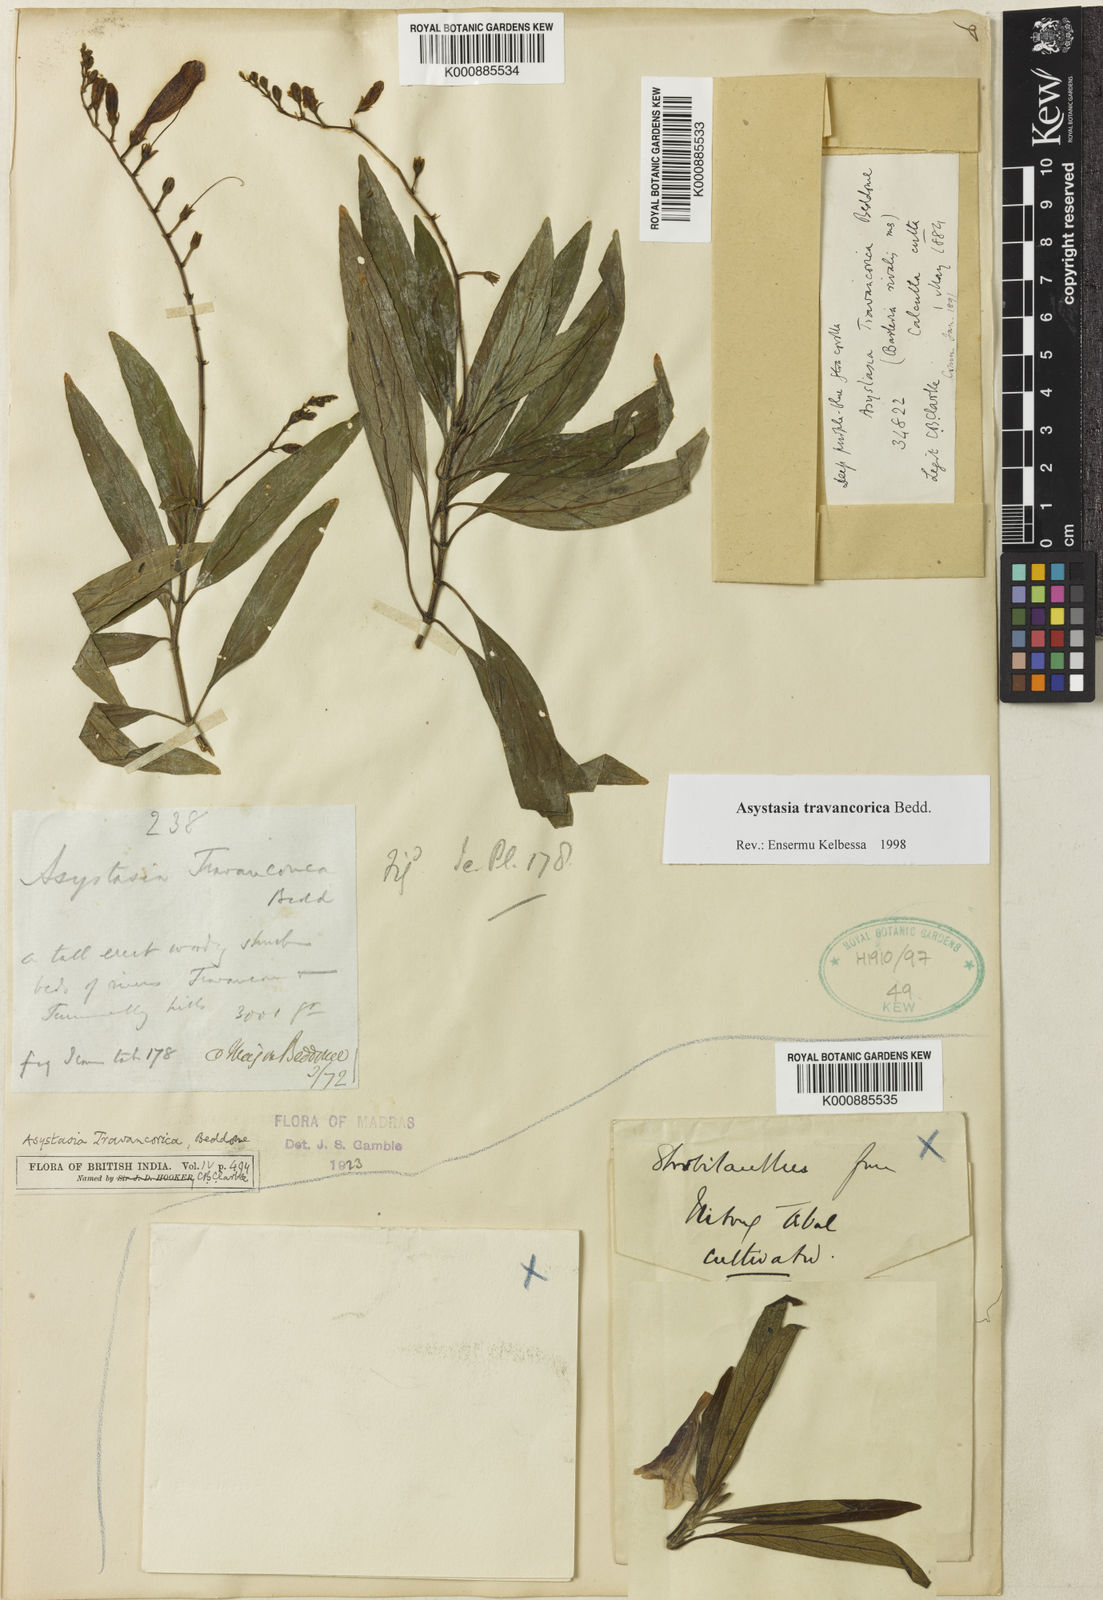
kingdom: Plantae
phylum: Tracheophyta
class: Magnoliopsida
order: Lamiales
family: Acanthaceae
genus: Asystasia
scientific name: Asystasia travancorica
